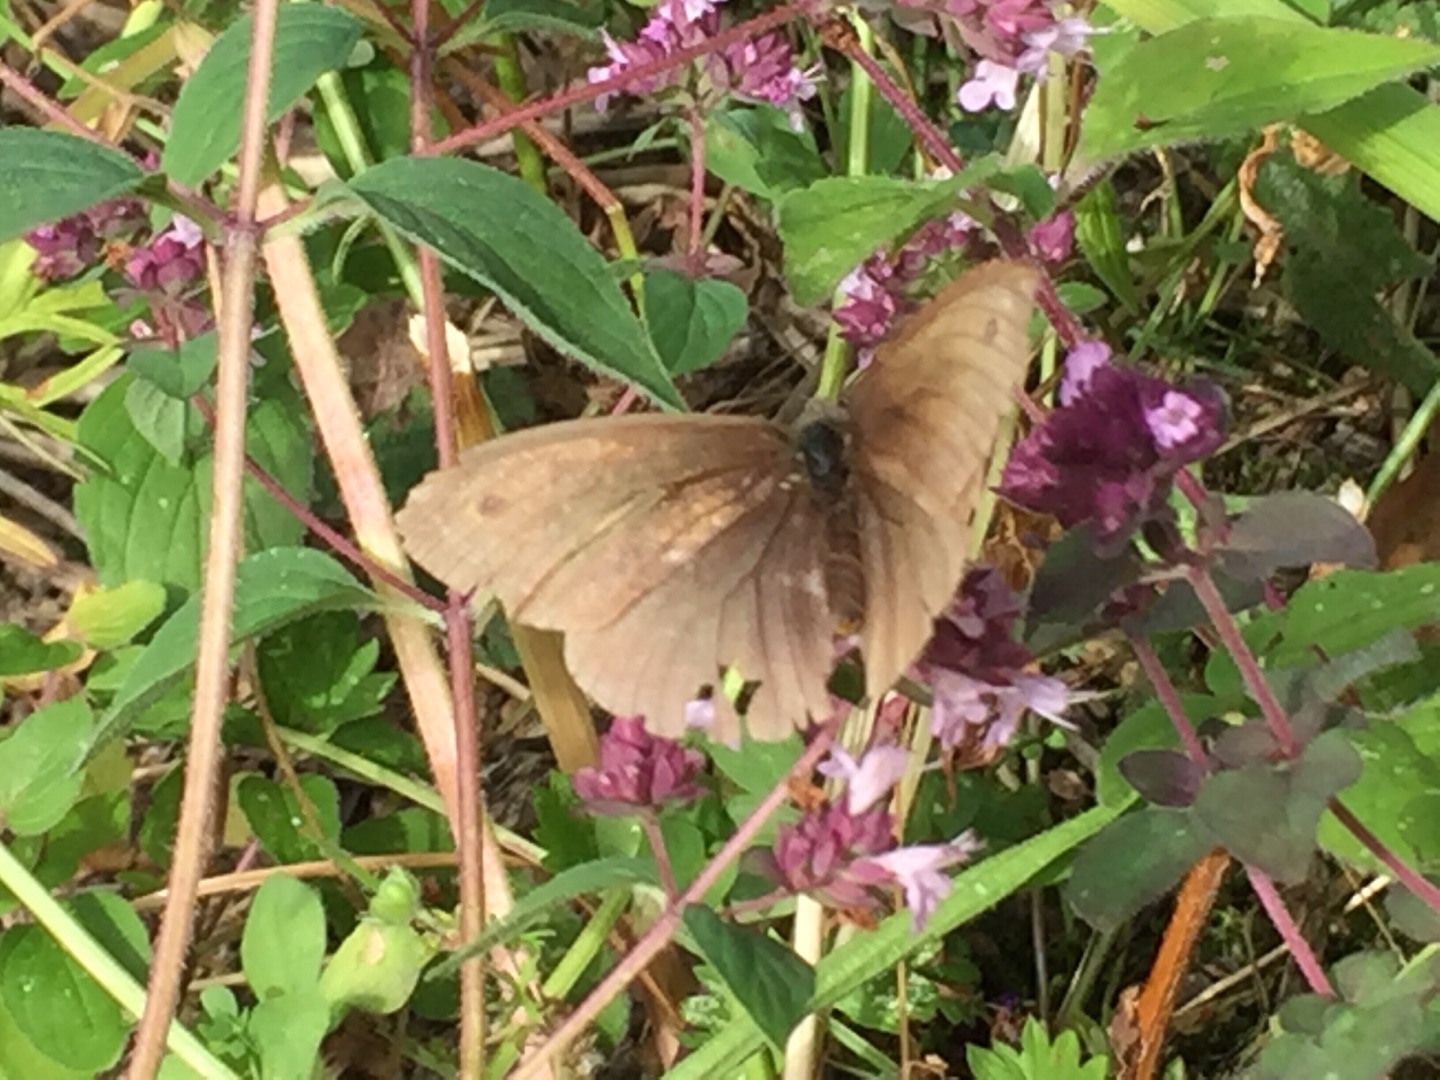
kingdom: Animalia
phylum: Arthropoda
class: Insecta
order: Lepidoptera
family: Nymphalidae
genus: Maniola
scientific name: Maniola jurtina
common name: Græsrandøje
